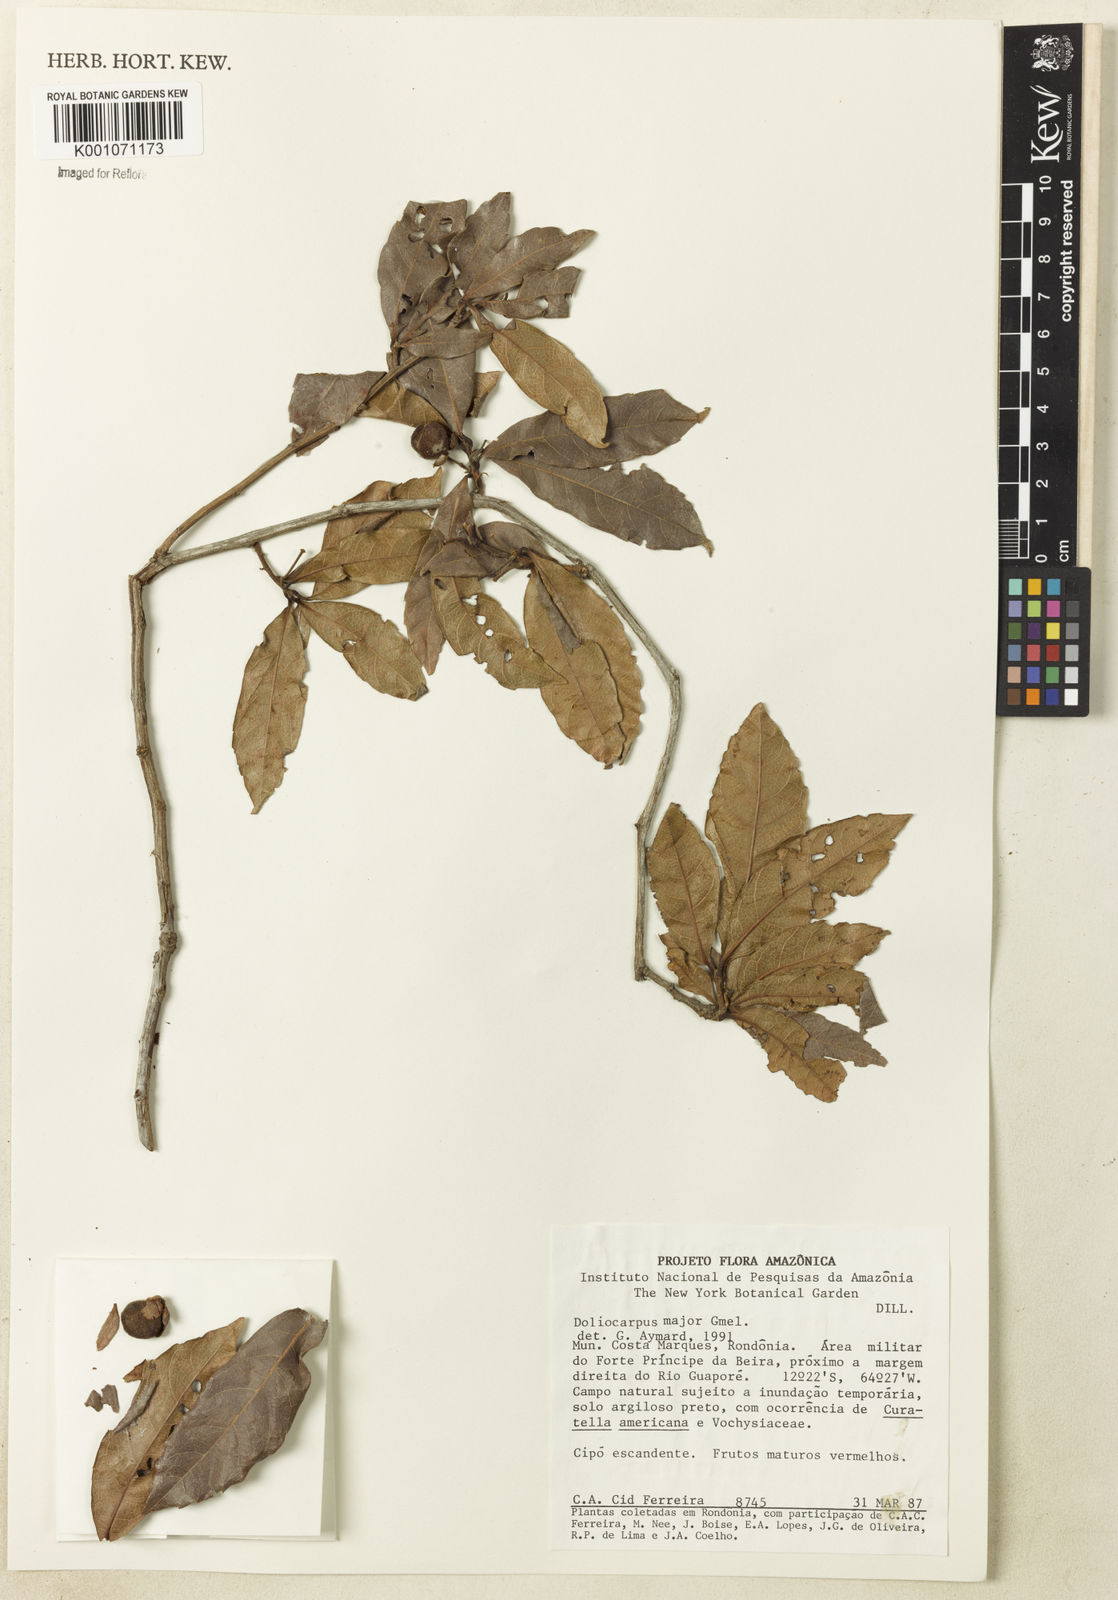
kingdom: Plantae
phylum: Tracheophyta
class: Magnoliopsida
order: Dilleniales
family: Dilleniaceae
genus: Doliocarpus
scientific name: Doliocarpus major
